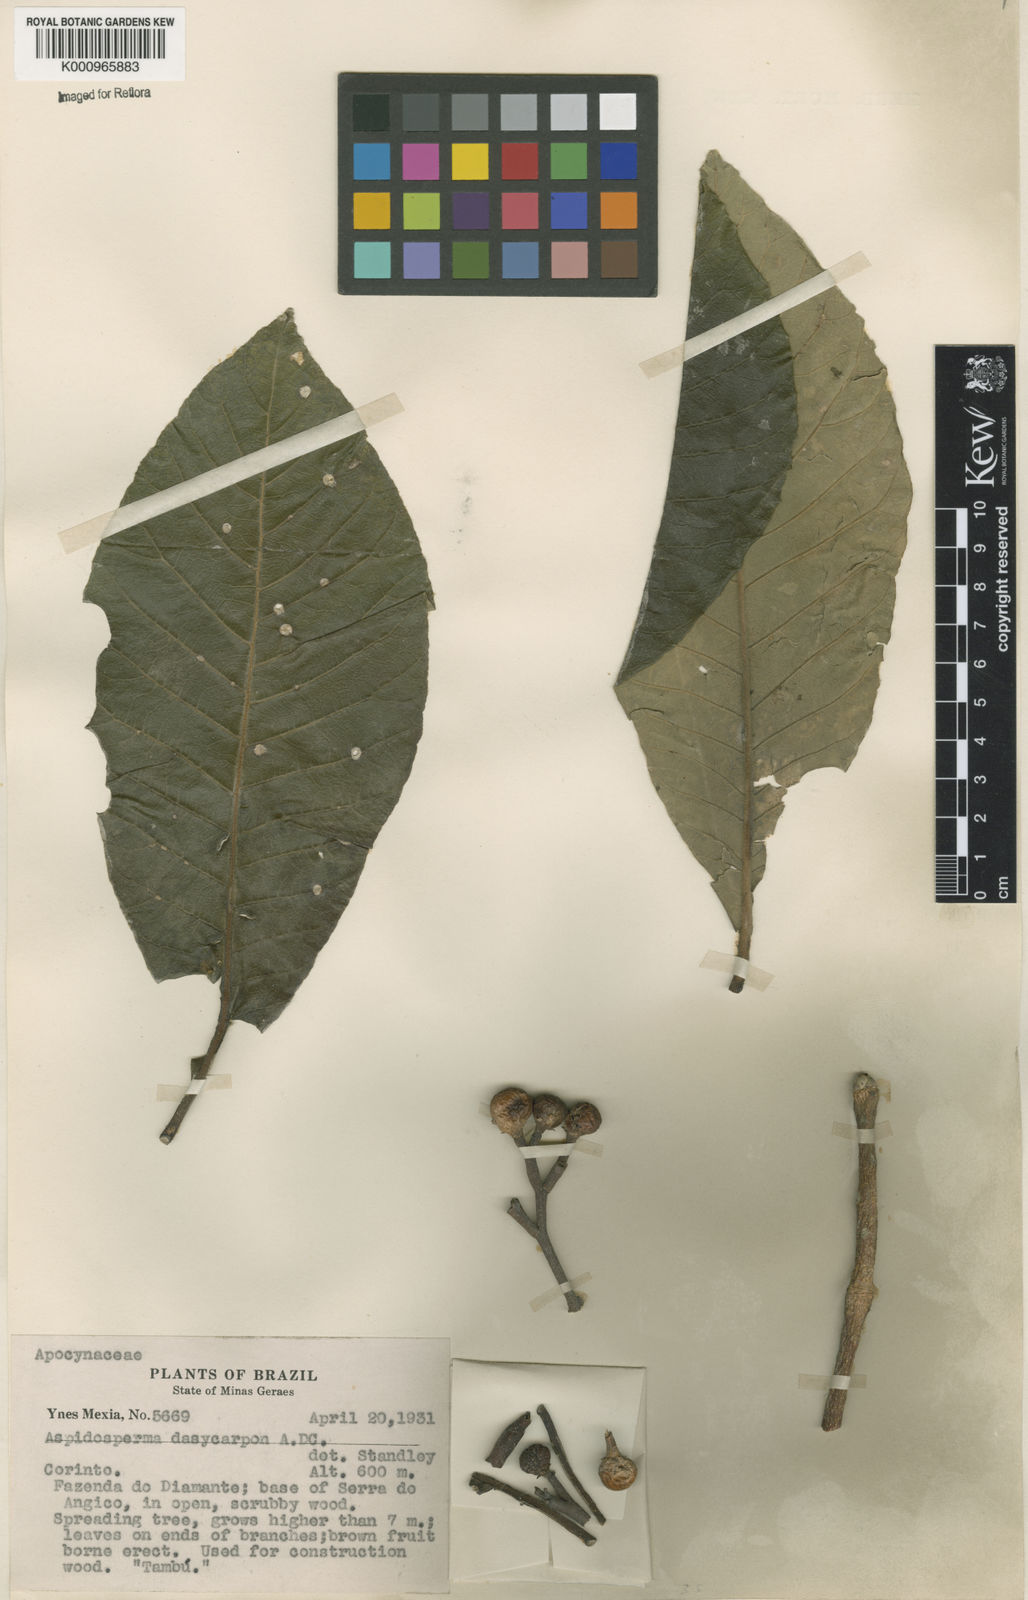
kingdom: Plantae
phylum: Tracheophyta
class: Magnoliopsida
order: Gentianales
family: Apocynaceae
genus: Aspidosperma
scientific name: Aspidosperma tomentosum
